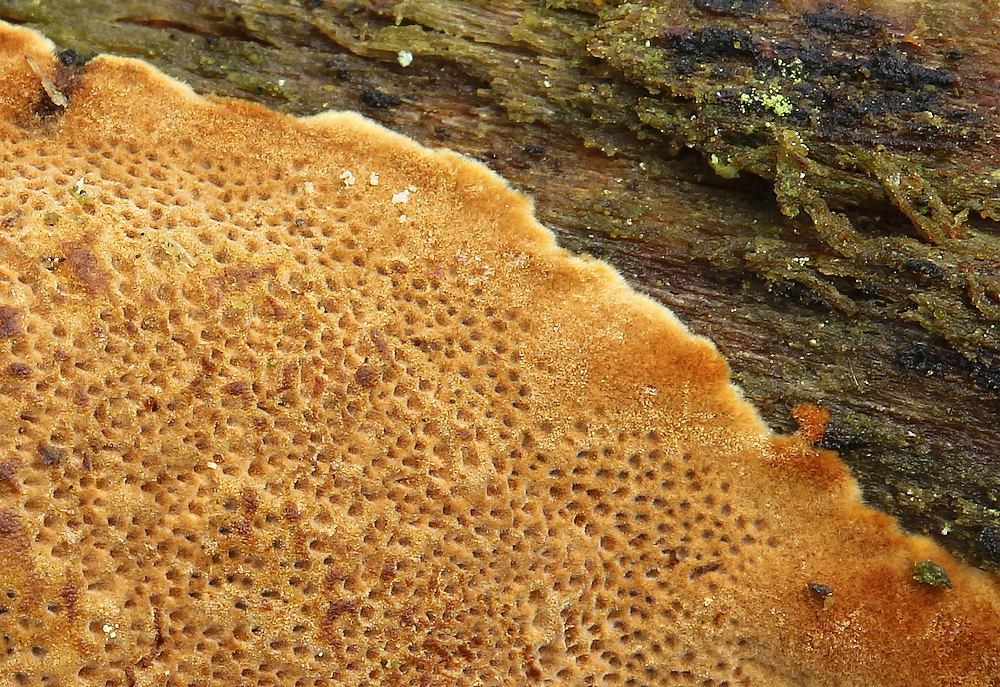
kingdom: Fungi
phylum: Basidiomycota
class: Agaricomycetes
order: Hymenochaetales
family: Hymenochaetaceae
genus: Fuscoporia
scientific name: Fuscoporia ferrea
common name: skorpe-ildporesvamp
